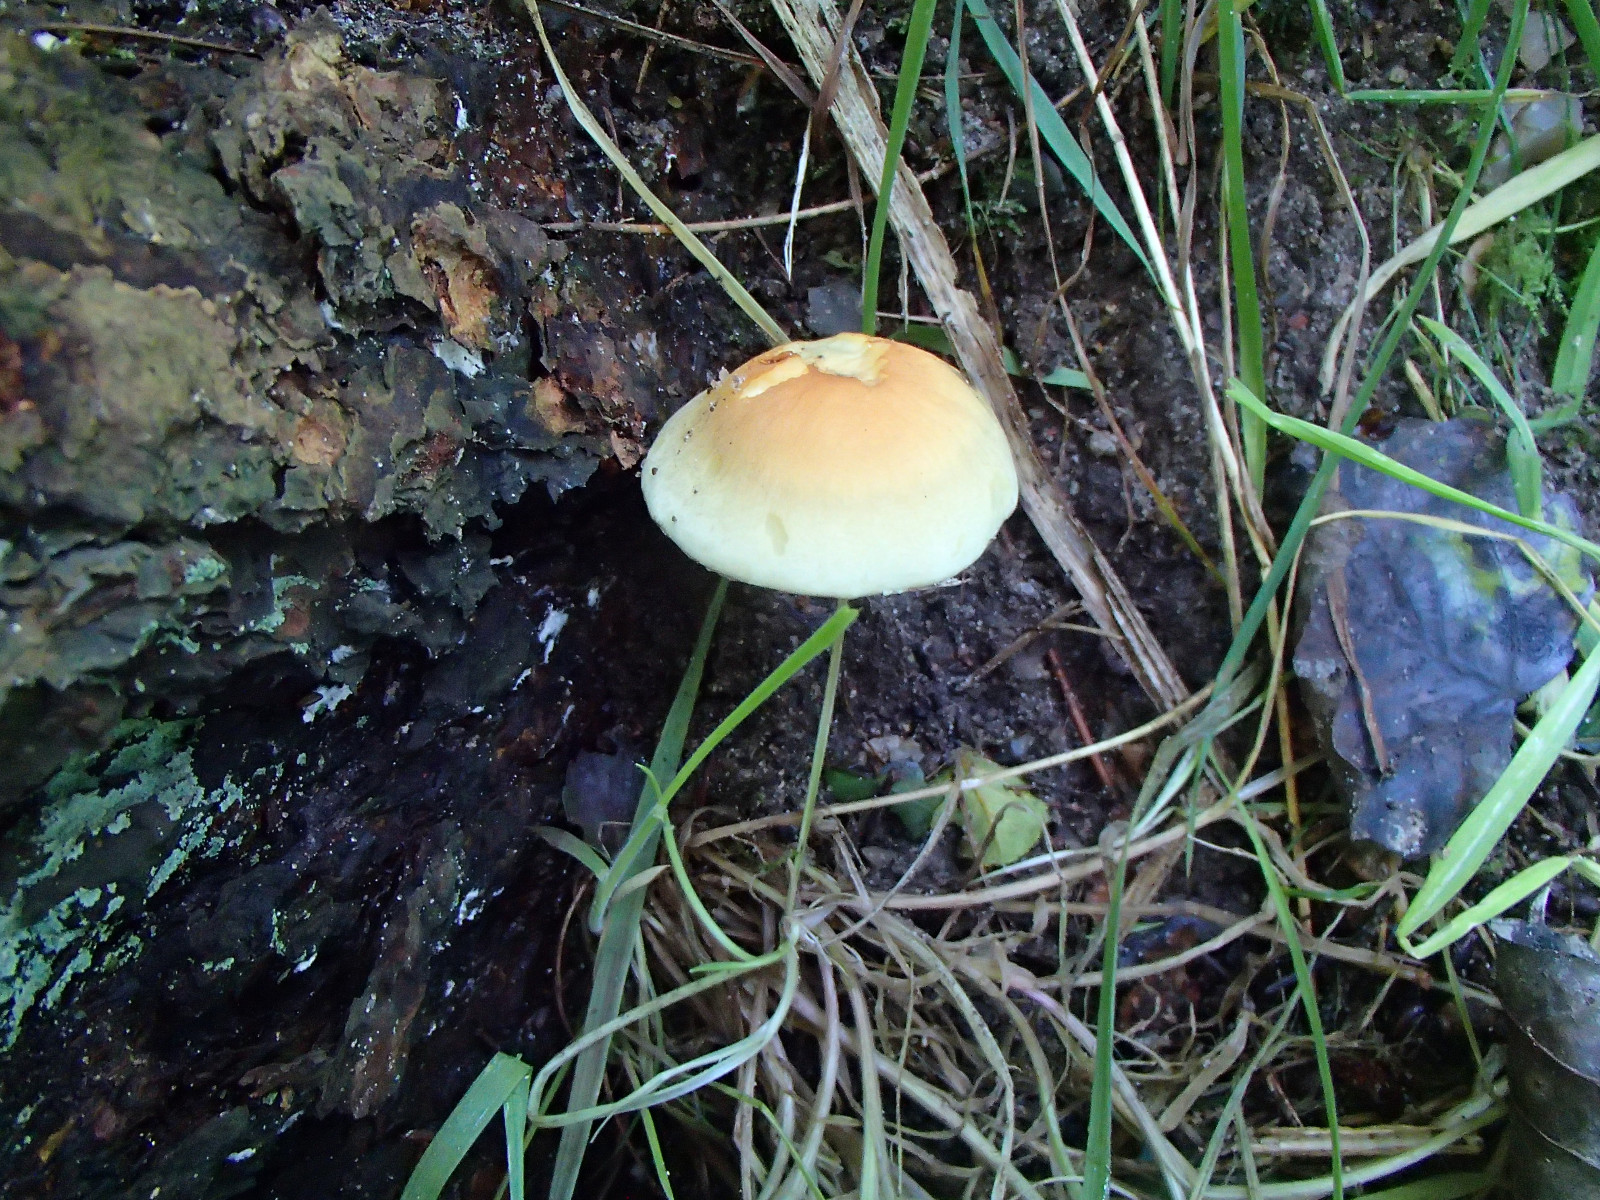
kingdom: Fungi
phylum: Basidiomycota
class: Agaricomycetes
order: Agaricales
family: Strophariaceae
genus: Hypholoma
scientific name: Hypholoma
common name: svovlhat
